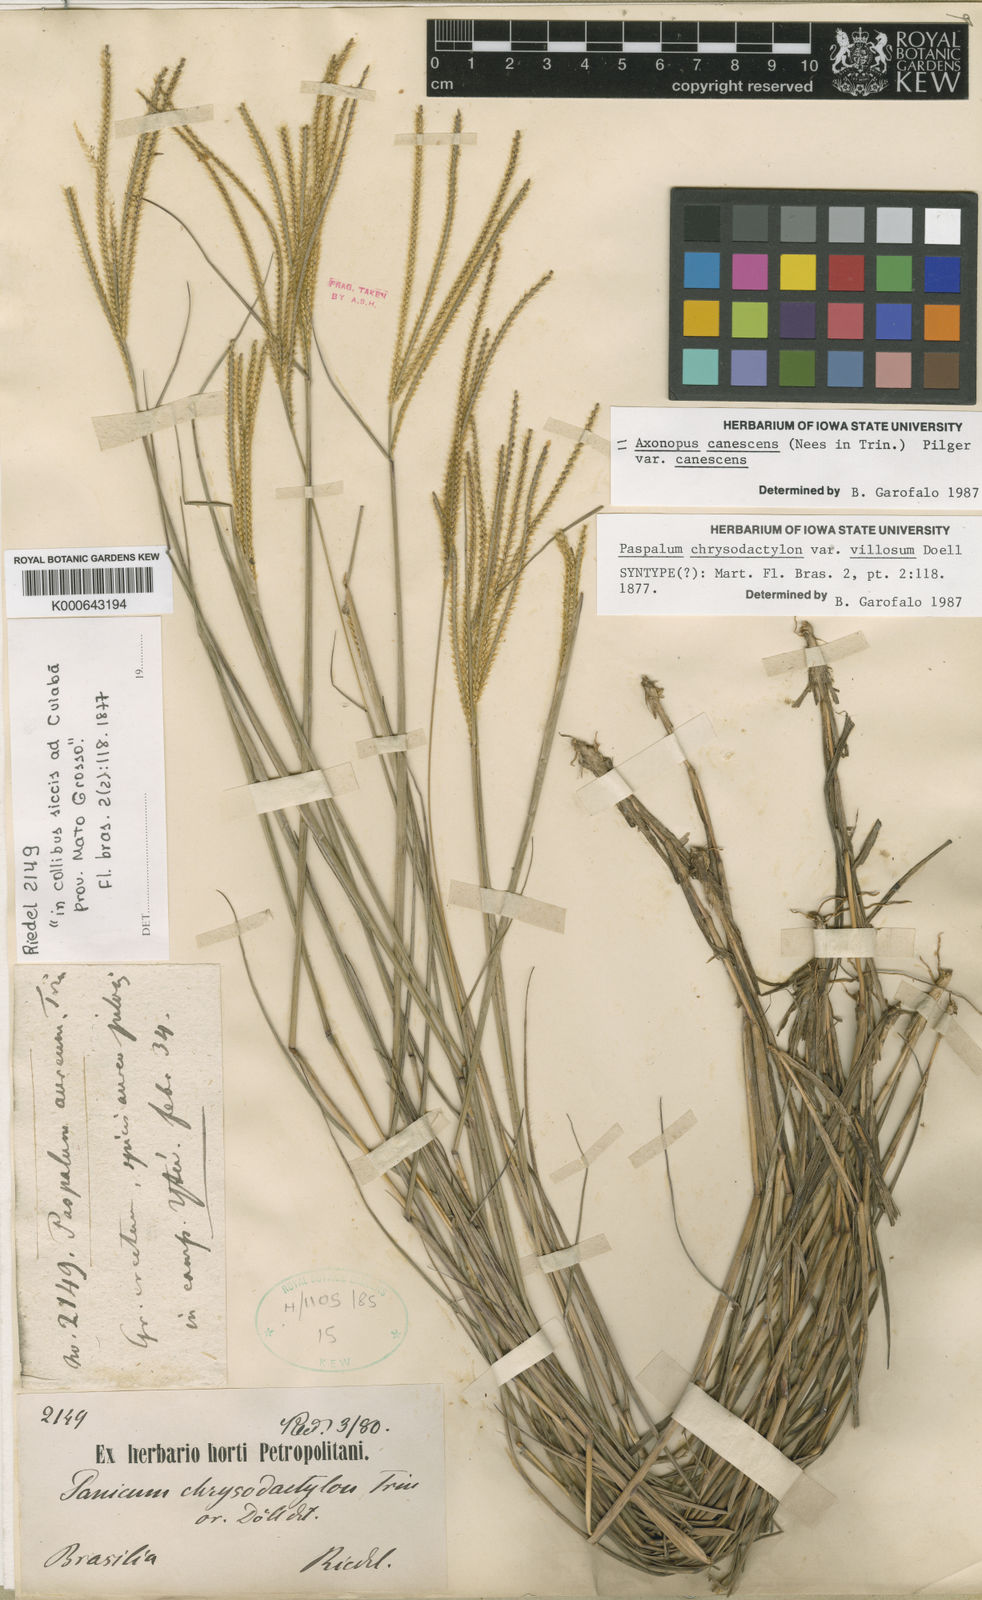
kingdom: Plantae
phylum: Tracheophyta
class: Liliopsida
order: Poales
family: Poaceae
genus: Axonopus
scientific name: Axonopus aureus
